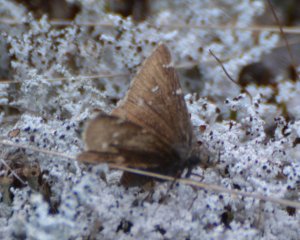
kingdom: Animalia
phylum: Arthropoda
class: Insecta
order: Lepidoptera
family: Hesperiidae
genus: Autochton
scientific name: Autochton
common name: Northern Cloudywing
